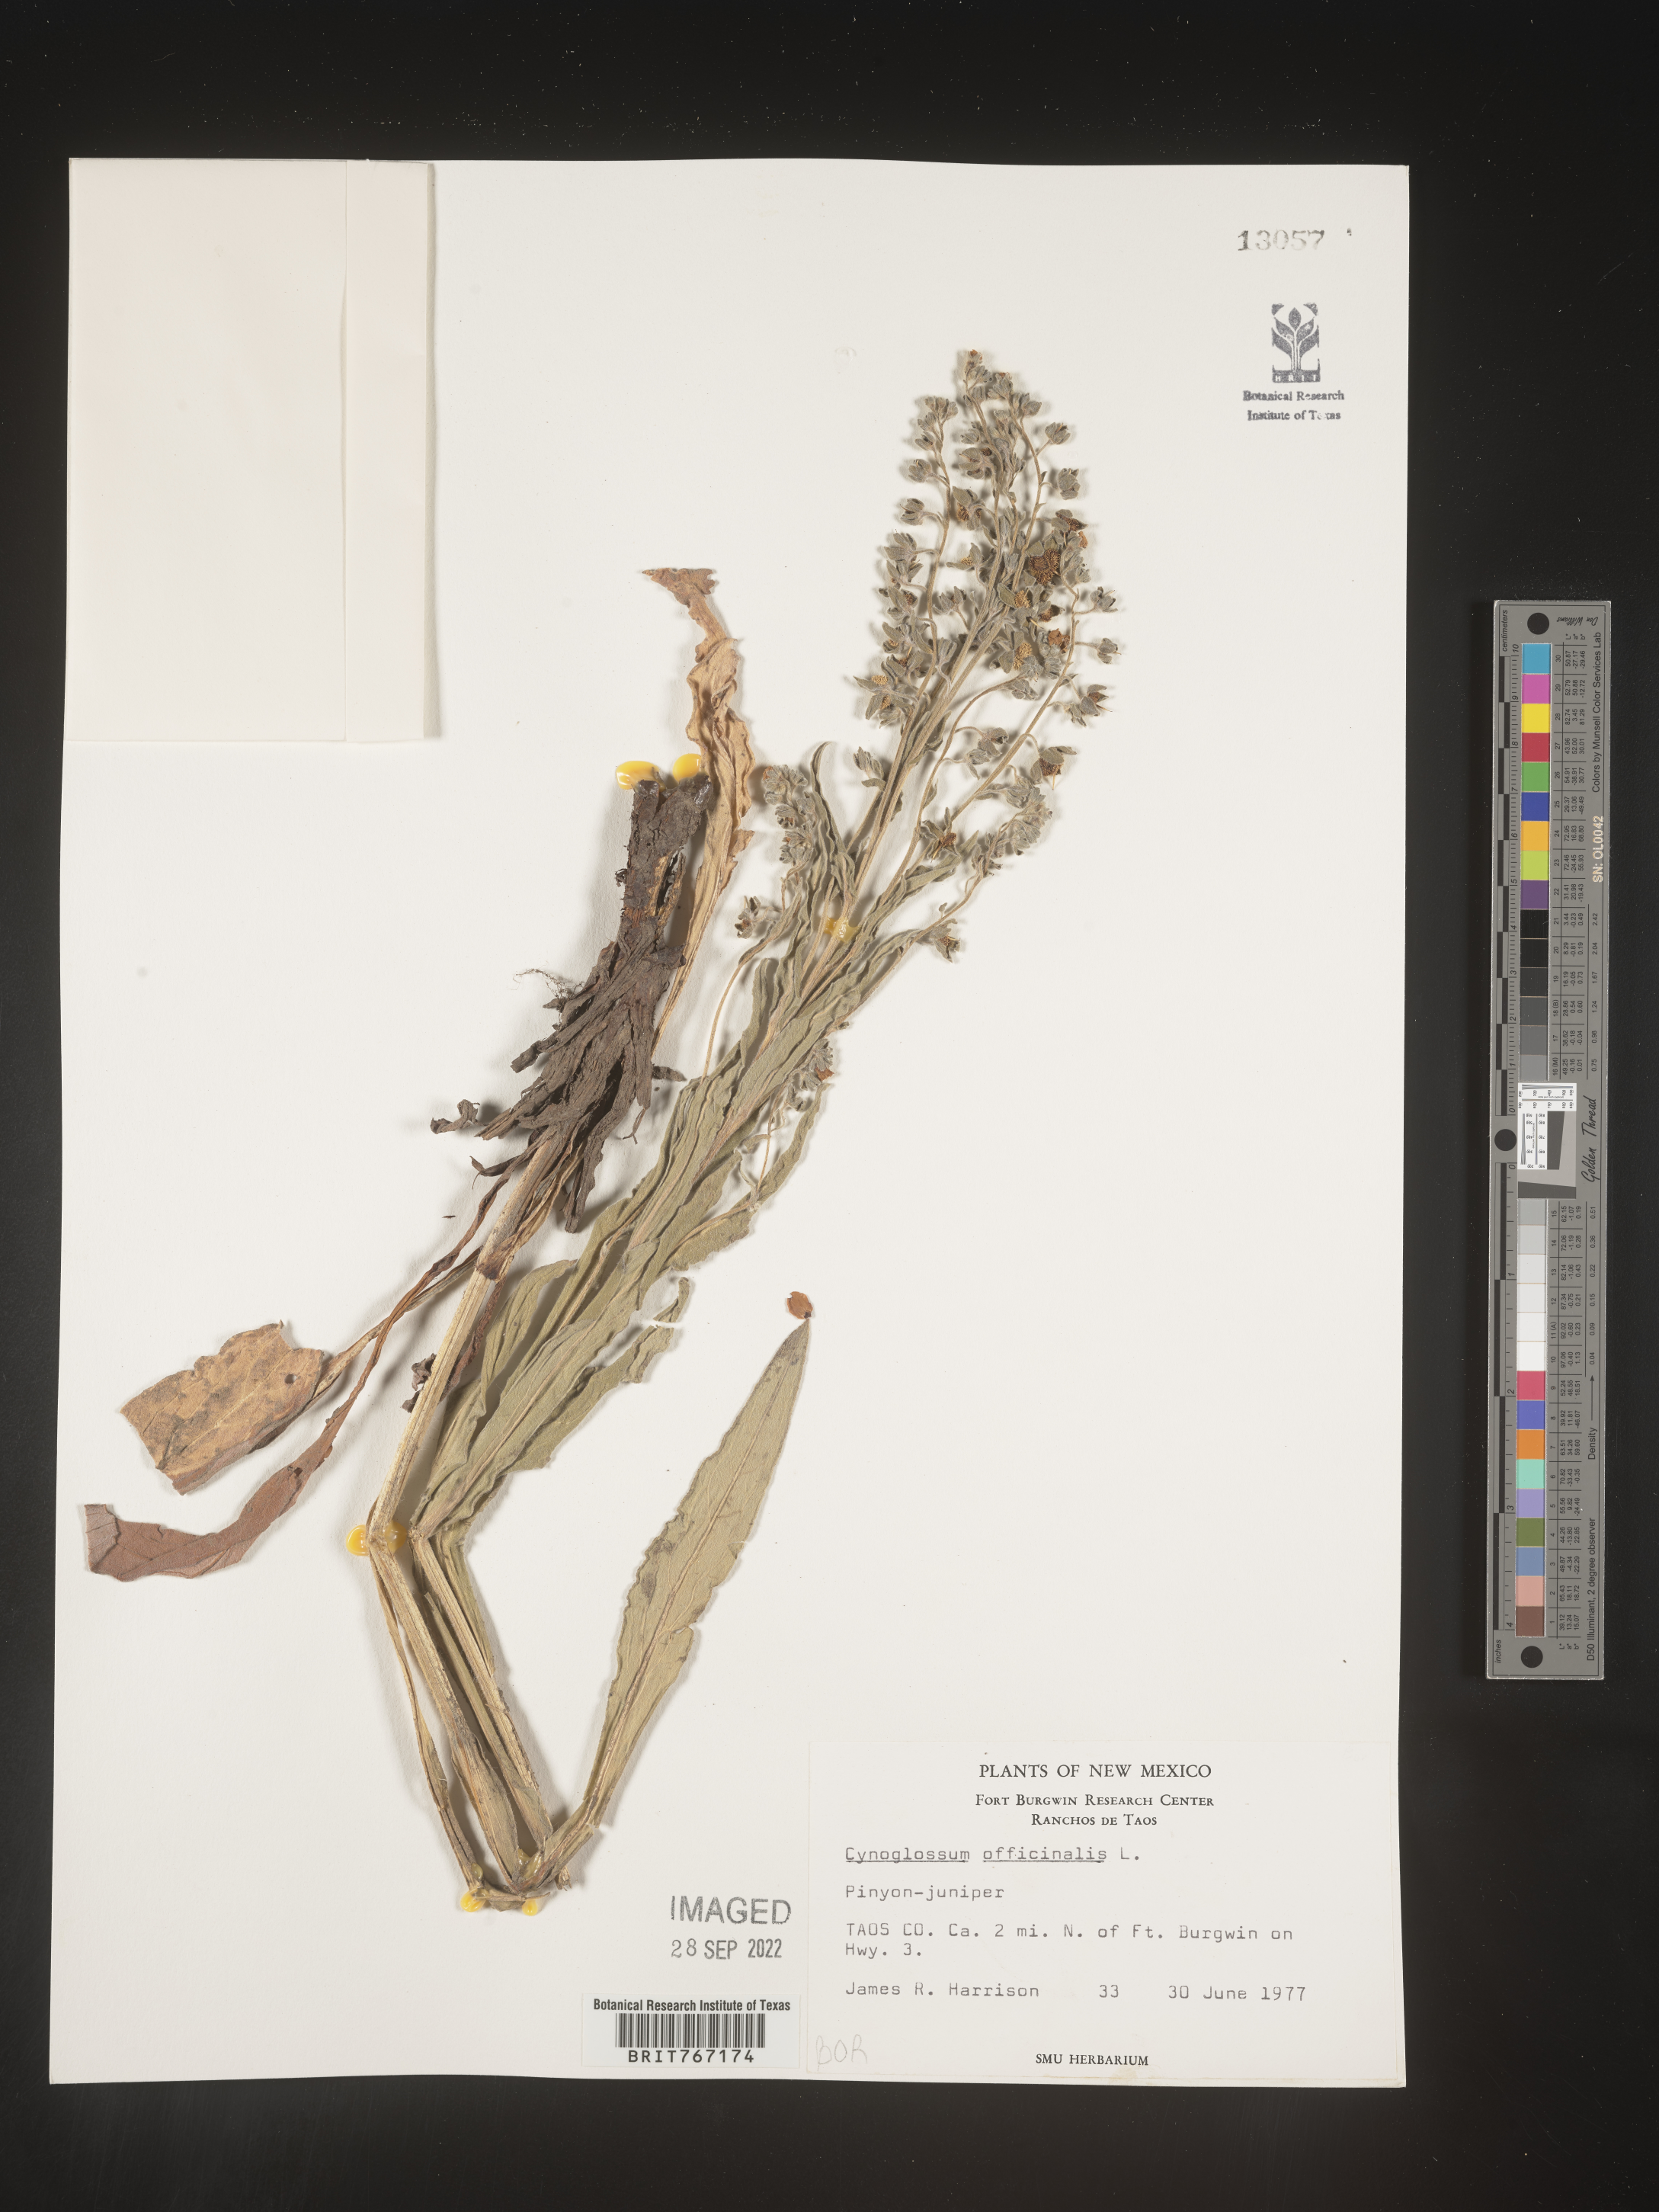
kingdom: Plantae
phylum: Tracheophyta
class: Magnoliopsida
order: Boraginales
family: Boraginaceae
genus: Cynoglossum
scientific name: Cynoglossum officinale
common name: Hound's-tongue
